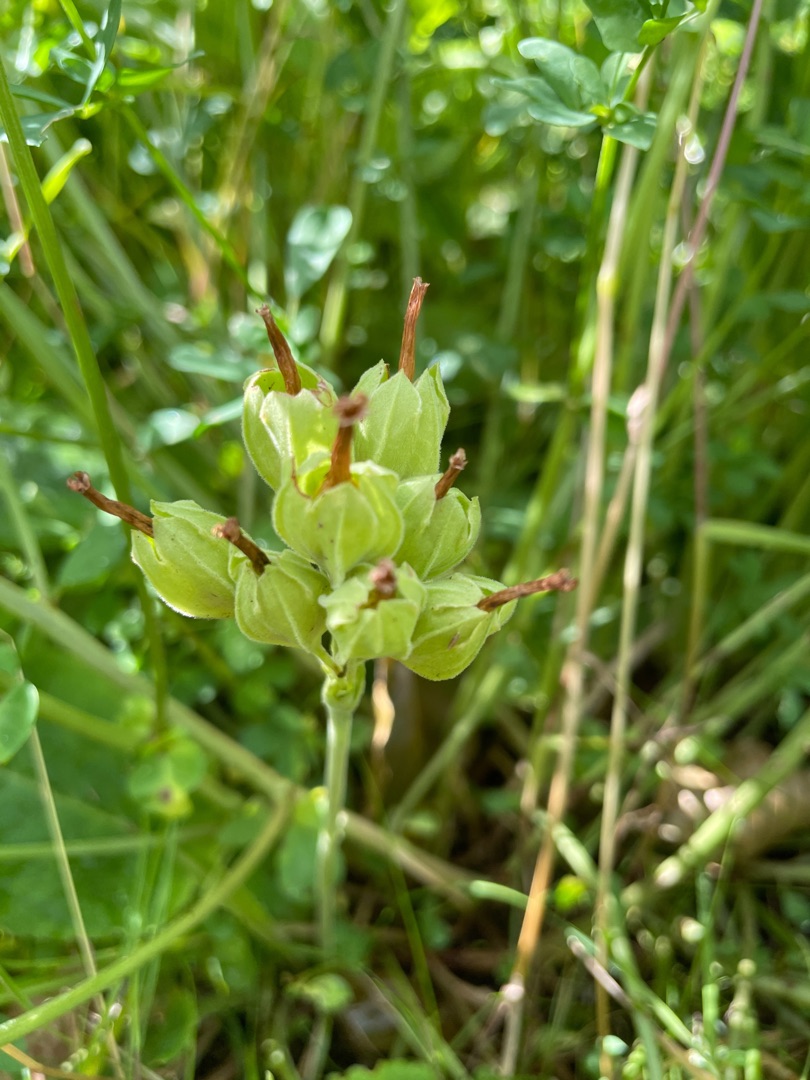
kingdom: Plantae
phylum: Tracheophyta
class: Magnoliopsida
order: Ericales
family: Primulaceae
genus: Primula
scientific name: Primula veris
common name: Hulkravet kodriver
